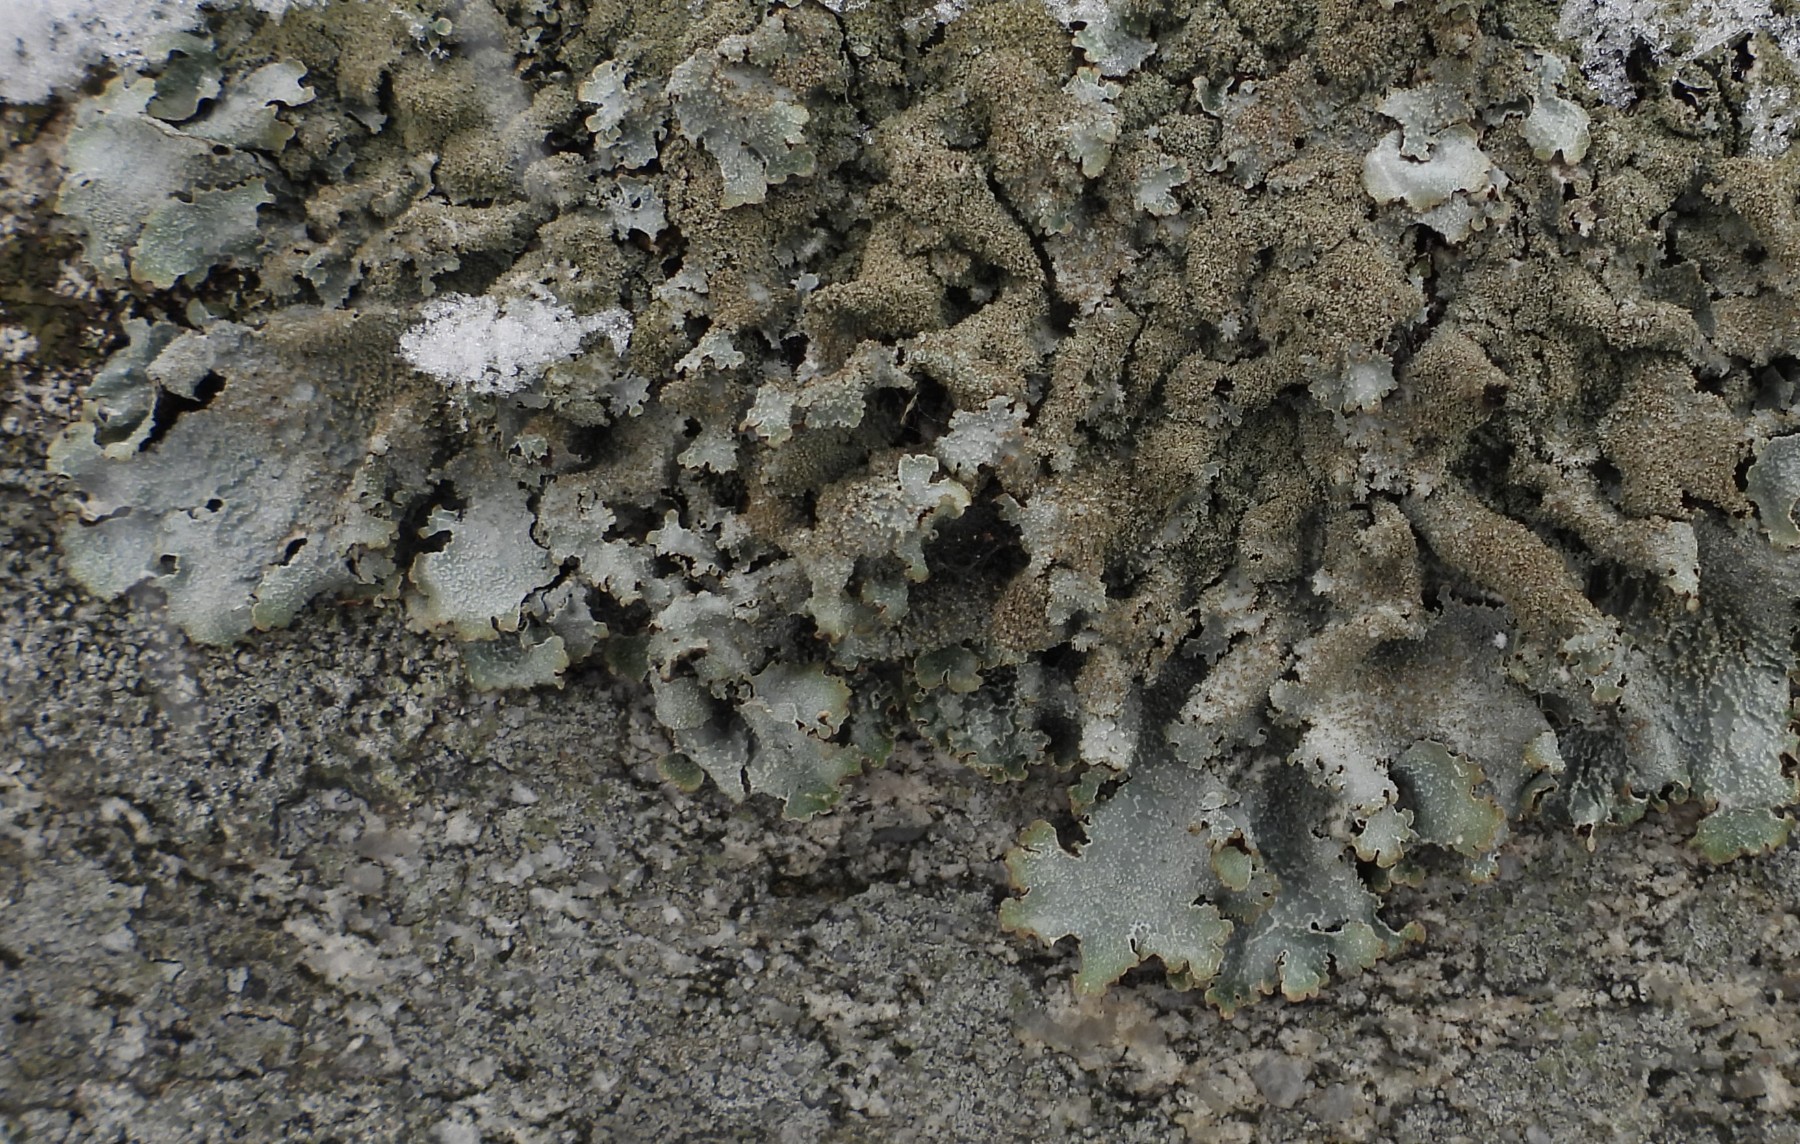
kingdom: Fungi
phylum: Ascomycota
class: Lecanoromycetes
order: Lecanorales
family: Parmeliaceae
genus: Parmelia
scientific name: Parmelia
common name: farve-skållav
